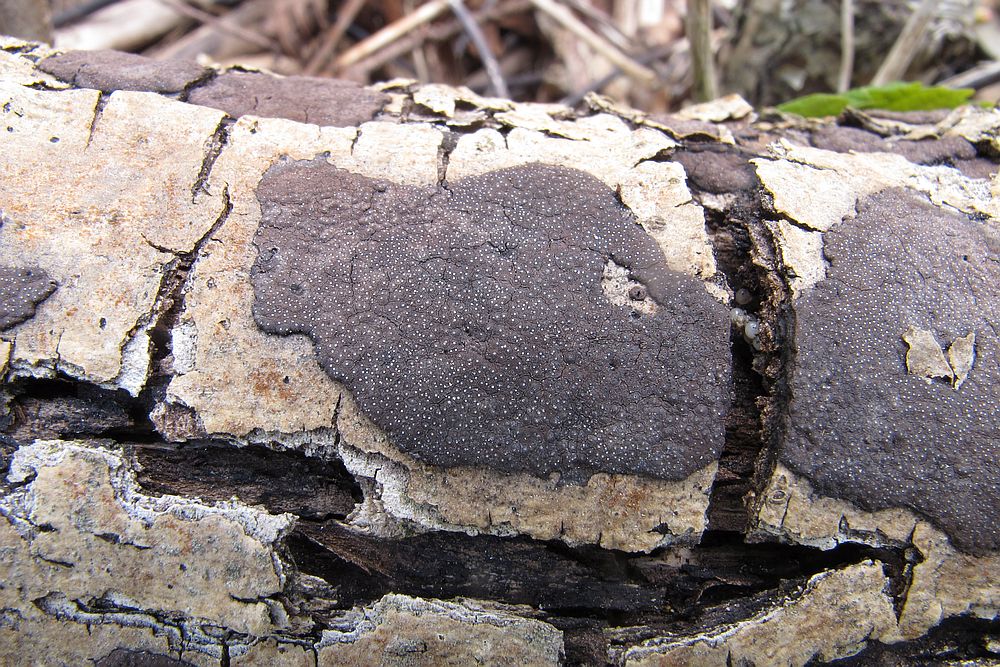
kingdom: Fungi
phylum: Ascomycota
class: Sordariomycetes
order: Xylariales
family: Hypoxylaceae
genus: Hypoxylon
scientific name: Hypoxylon petriniae
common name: nedsænket kulbær
